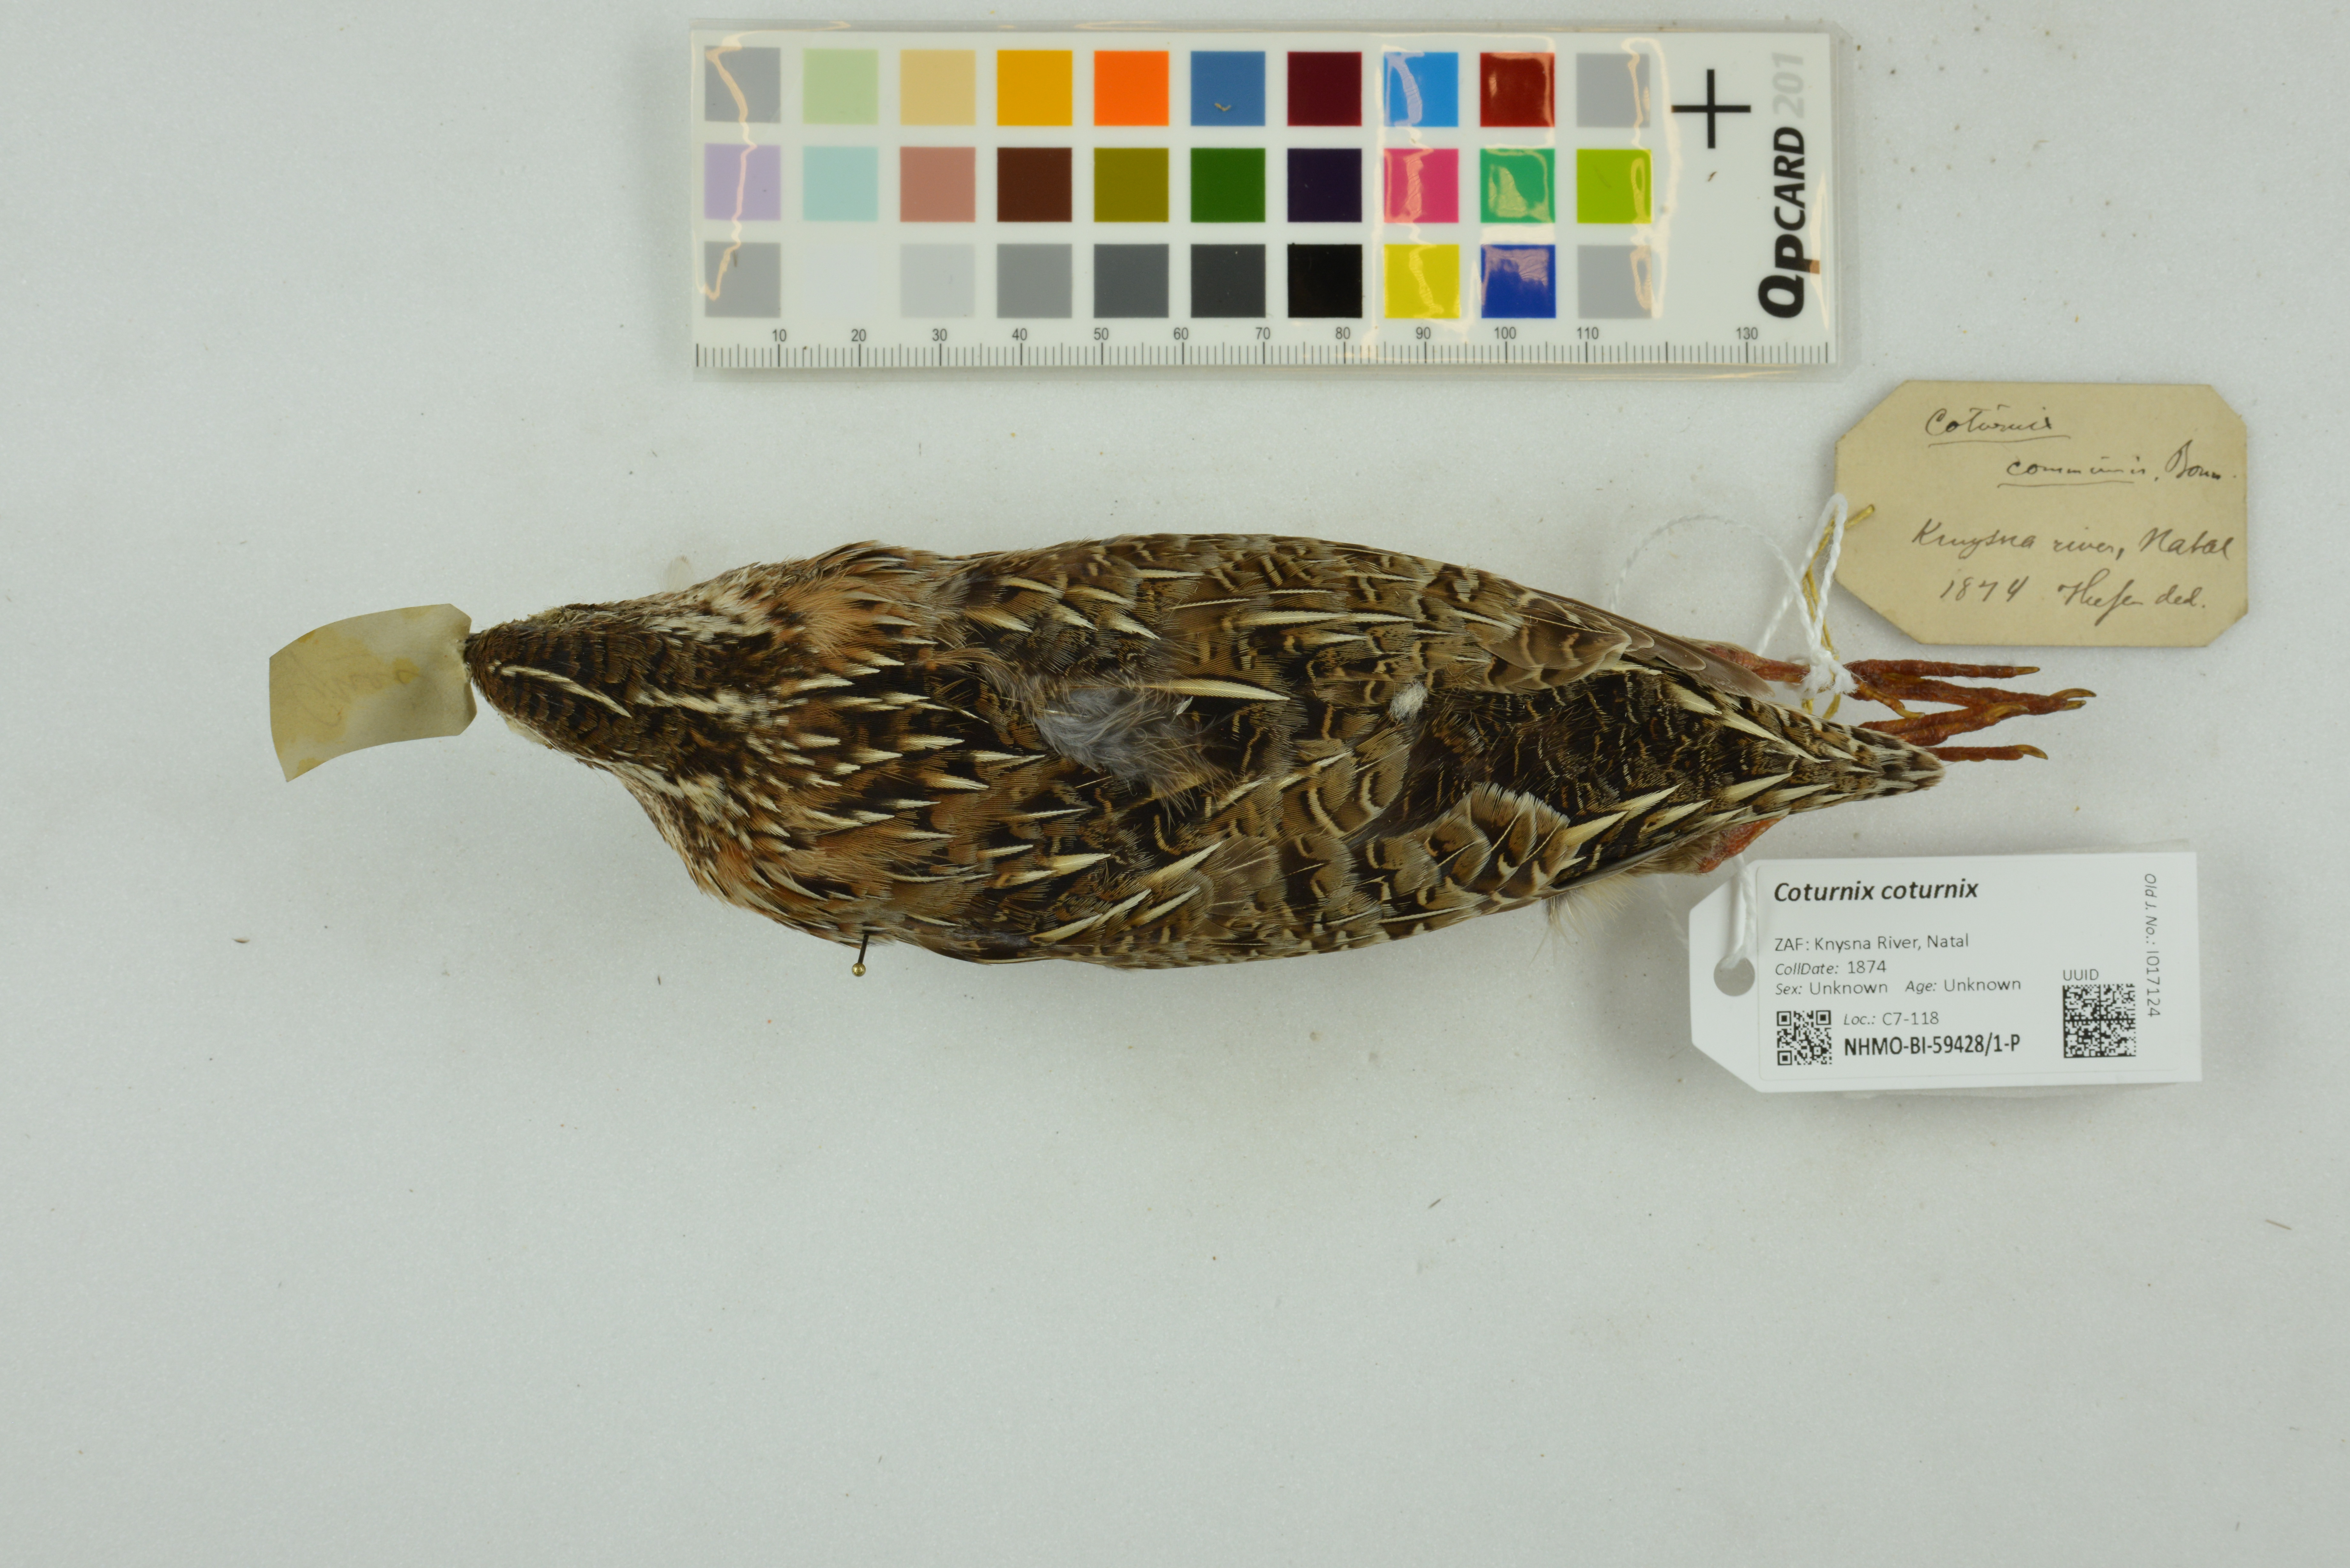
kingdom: Animalia
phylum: Chordata
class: Aves
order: Galliformes
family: Phasianidae
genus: Coturnix
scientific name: Coturnix coturnix
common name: Common quail
